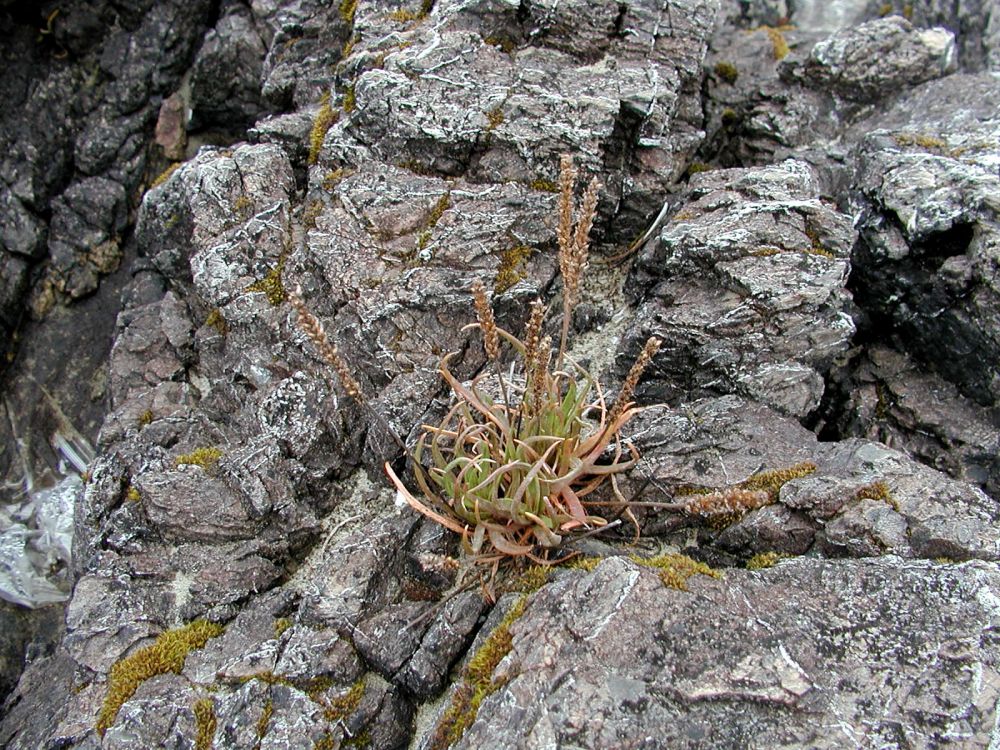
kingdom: Plantae
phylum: Tracheophyta
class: Magnoliopsida
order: Lamiales
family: Plantaginaceae
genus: Plantago
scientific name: Plantago maritima
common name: Sea plantain
